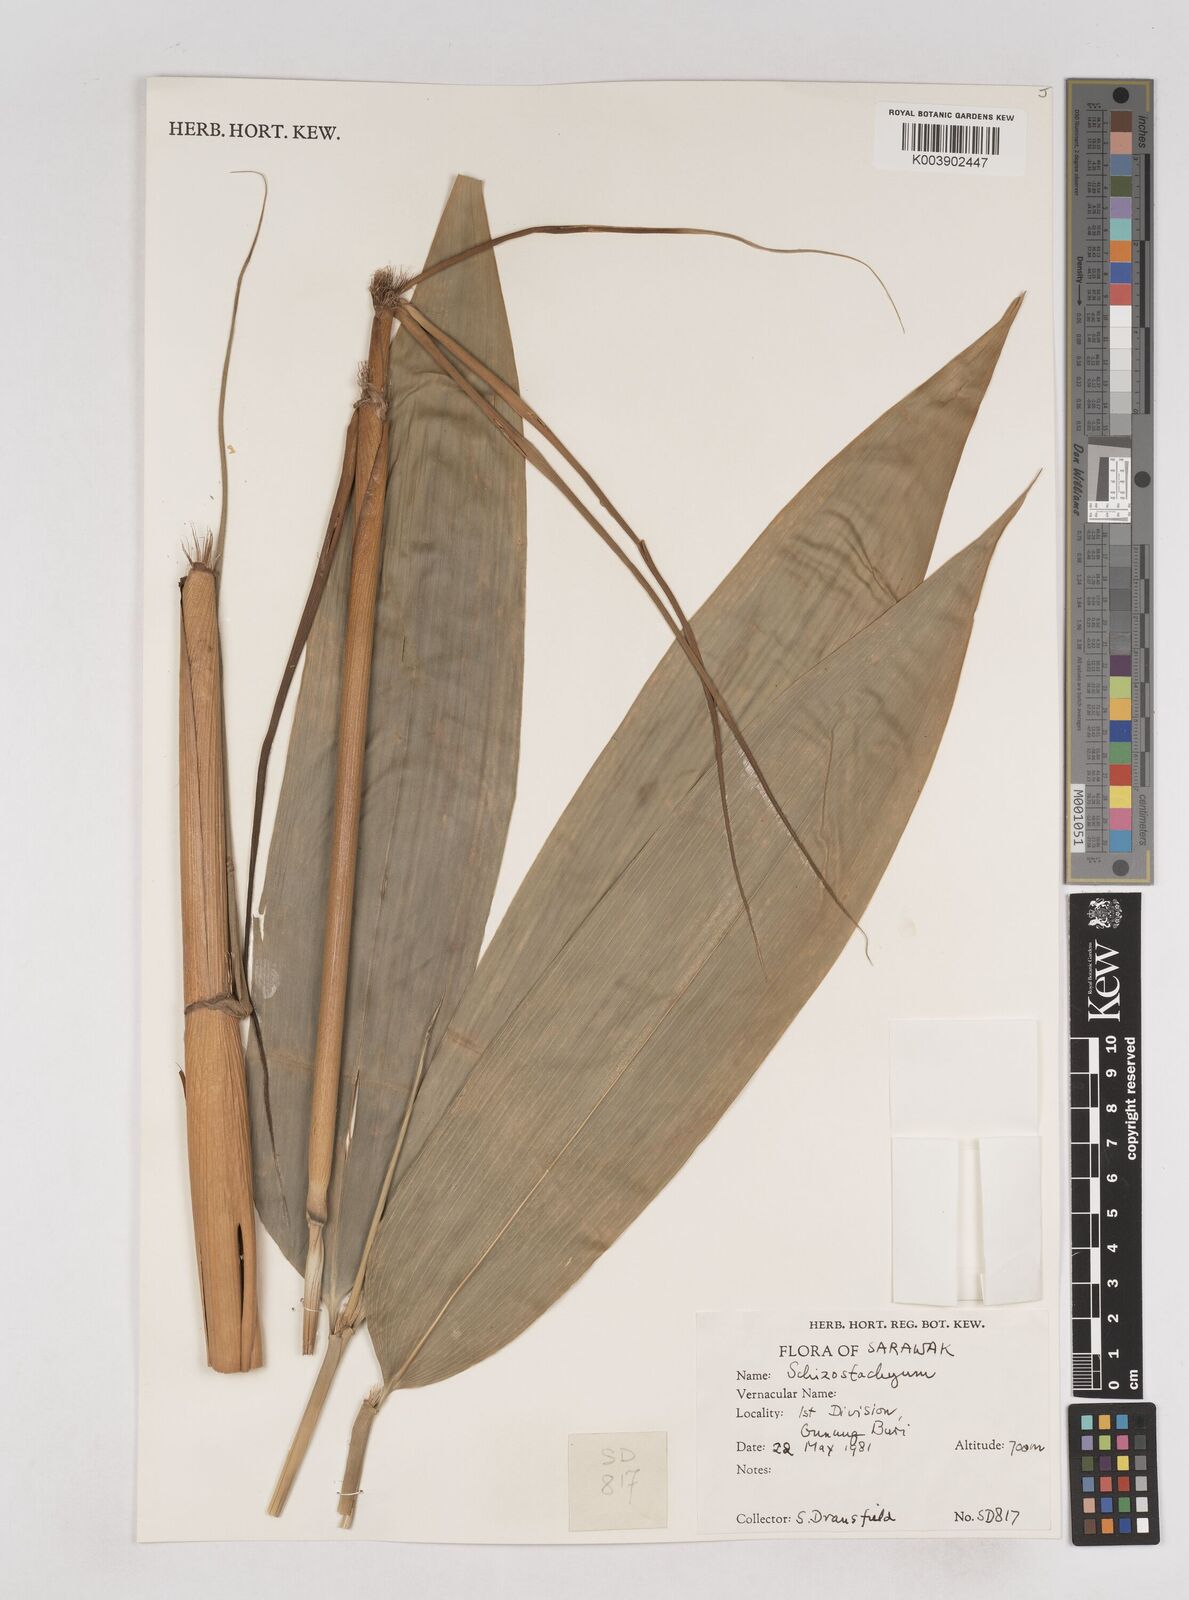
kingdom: Plantae
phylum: Tracheophyta
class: Liliopsida
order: Poales
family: Poaceae
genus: Schizostachyum
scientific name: Schizostachyum
